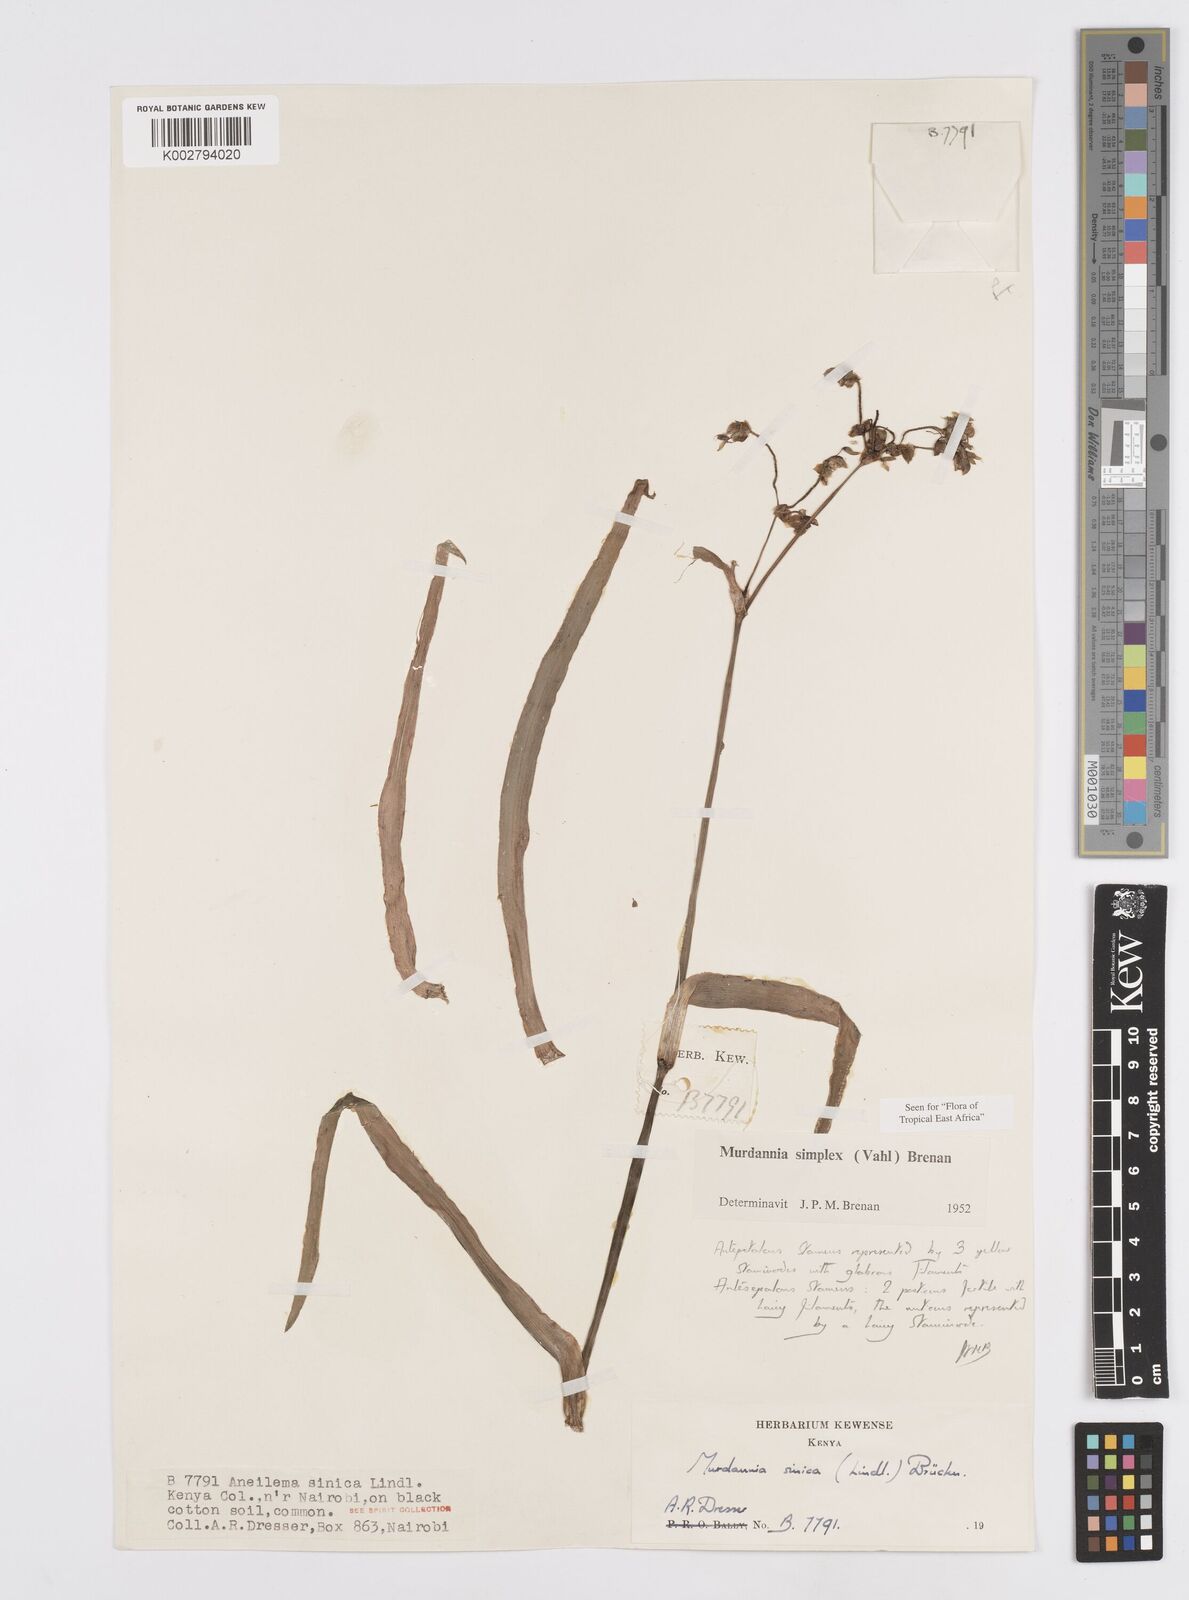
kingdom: Plantae
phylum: Tracheophyta
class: Liliopsida
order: Commelinales
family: Commelinaceae
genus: Murdannia
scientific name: Murdannia simplex
